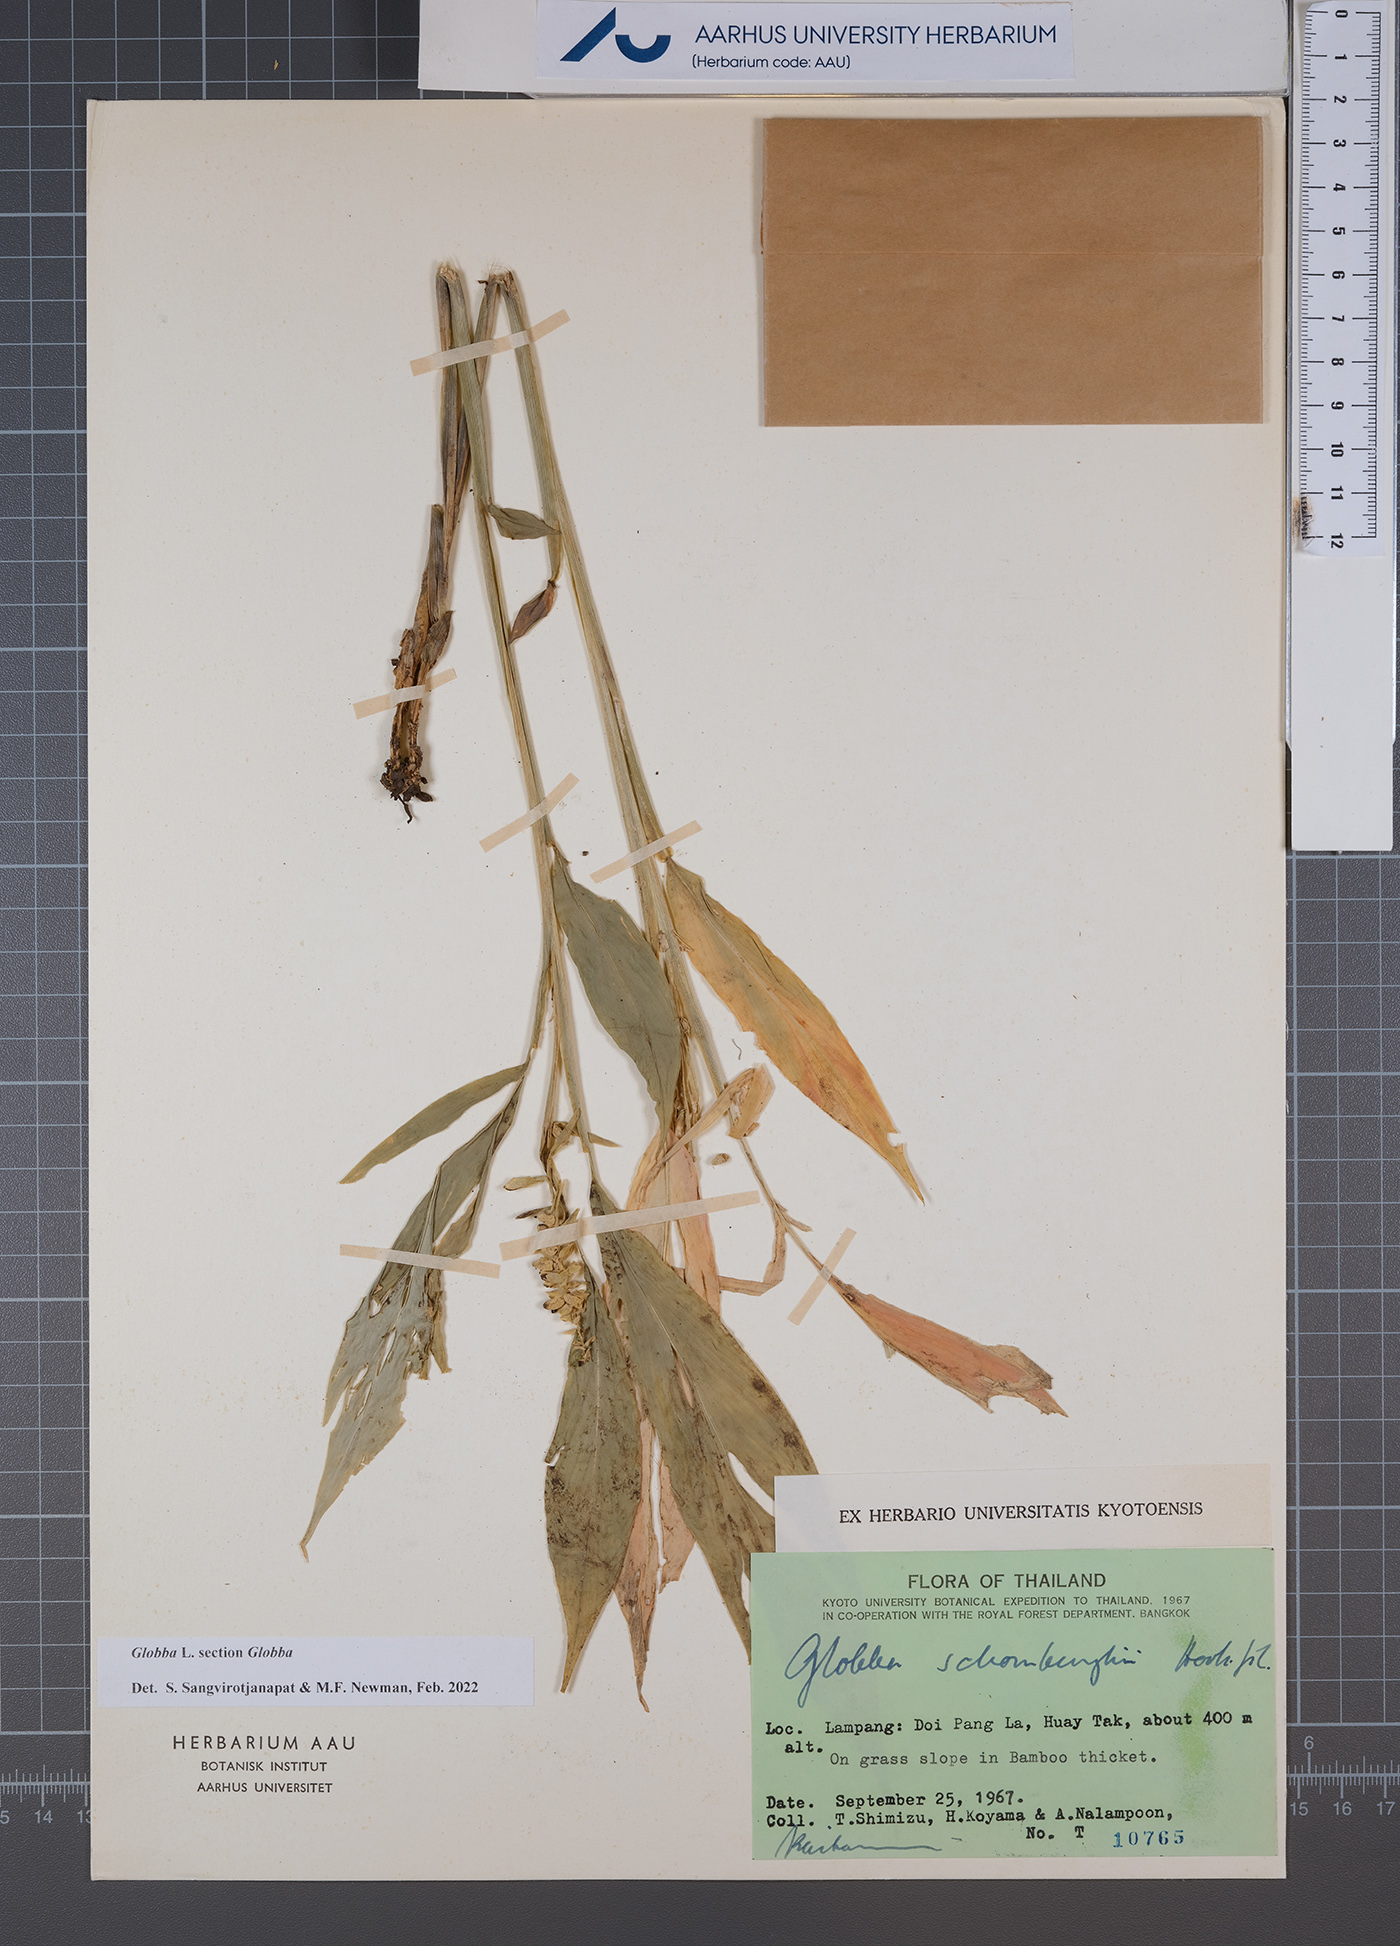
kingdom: Plantae
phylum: Tracheophyta
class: Liliopsida
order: Zingiberales
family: Zingiberaceae
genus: Globba
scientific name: Globba
